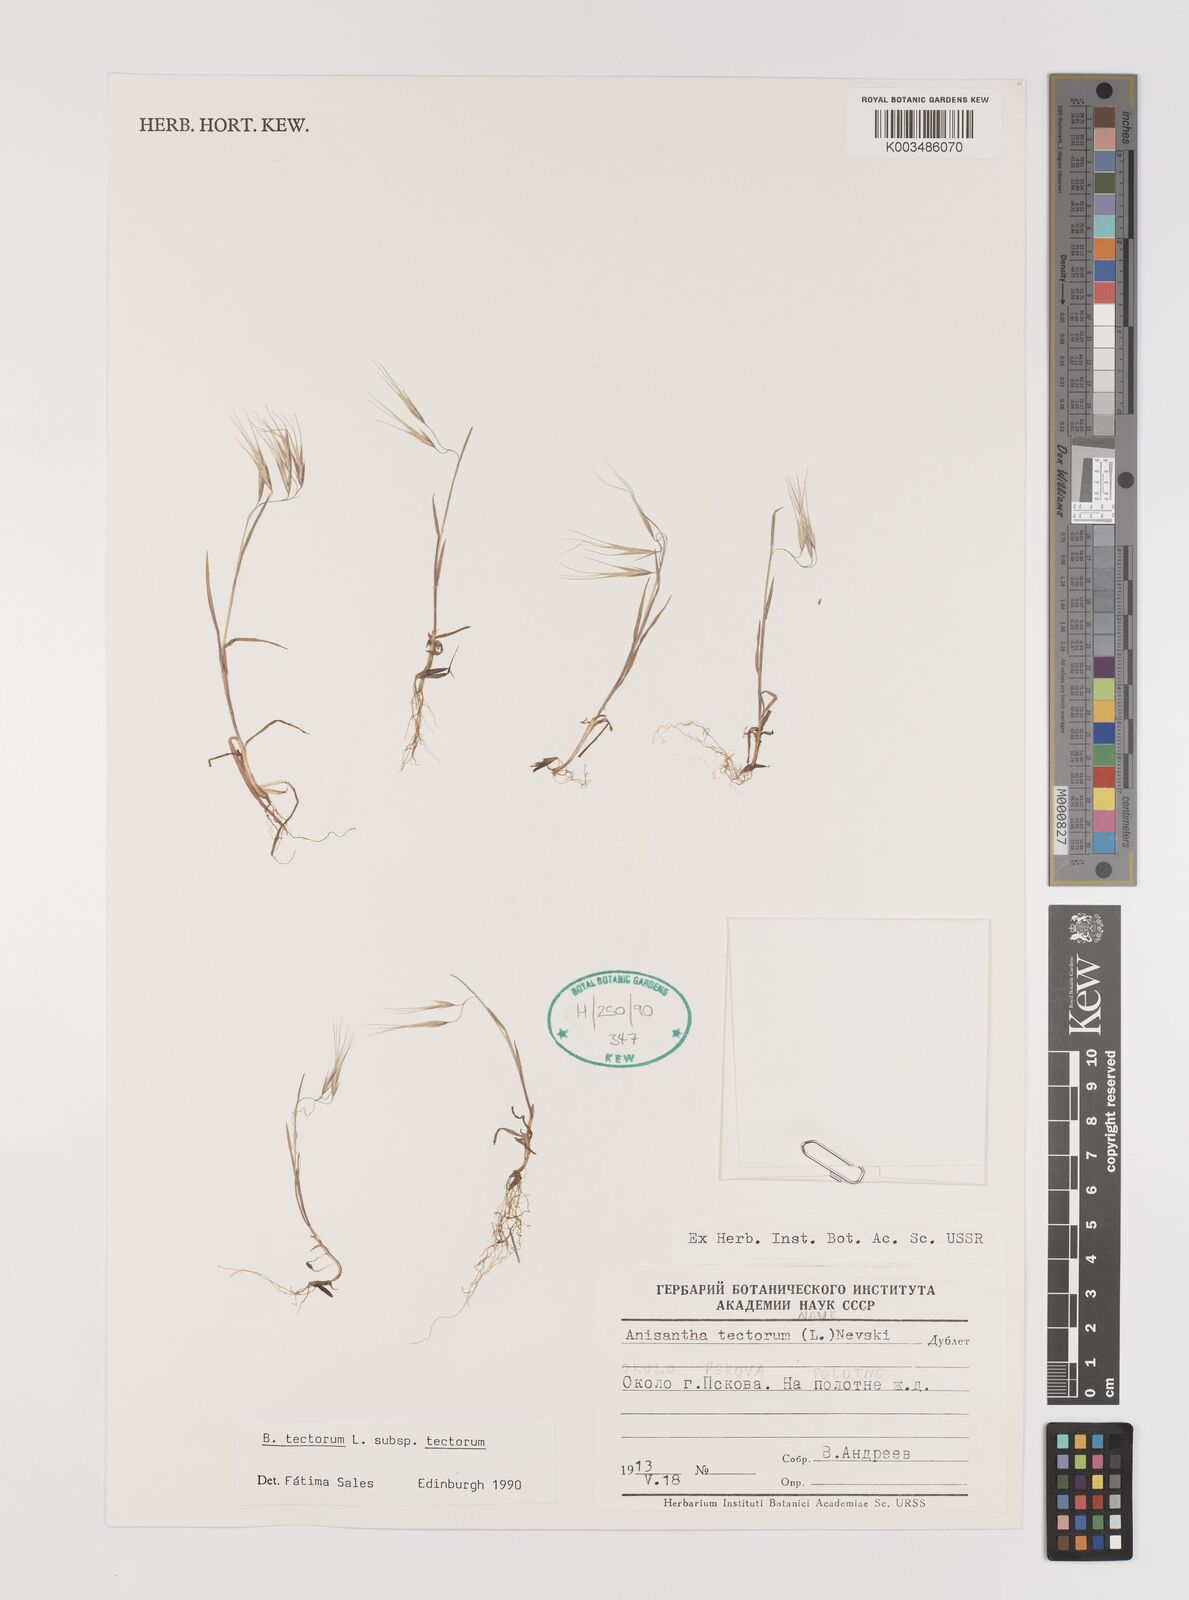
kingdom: Plantae
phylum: Tracheophyta
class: Liliopsida
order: Poales
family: Poaceae
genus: Bromus
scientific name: Bromus tectorum
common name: Cheatgrass
